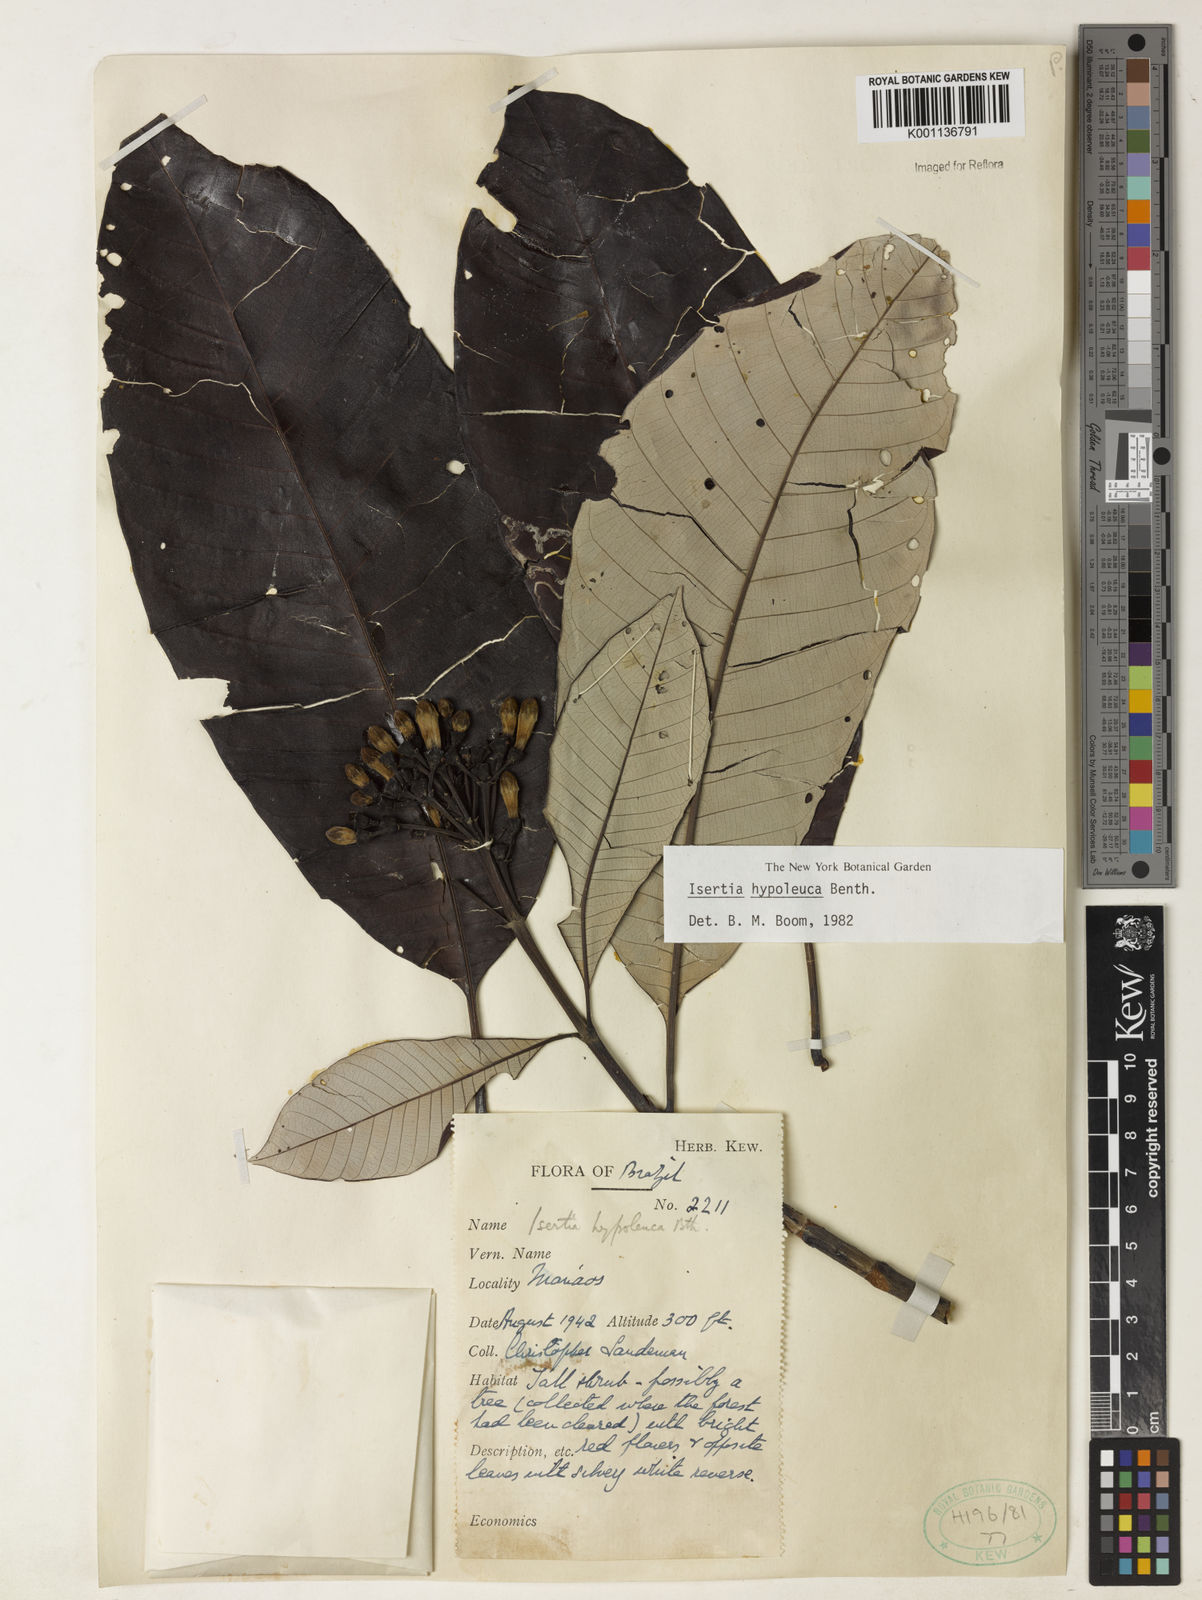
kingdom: Plantae
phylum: Tracheophyta
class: Magnoliopsida
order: Gentianales
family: Rubiaceae
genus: Isertia
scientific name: Isertia hypoleuca
